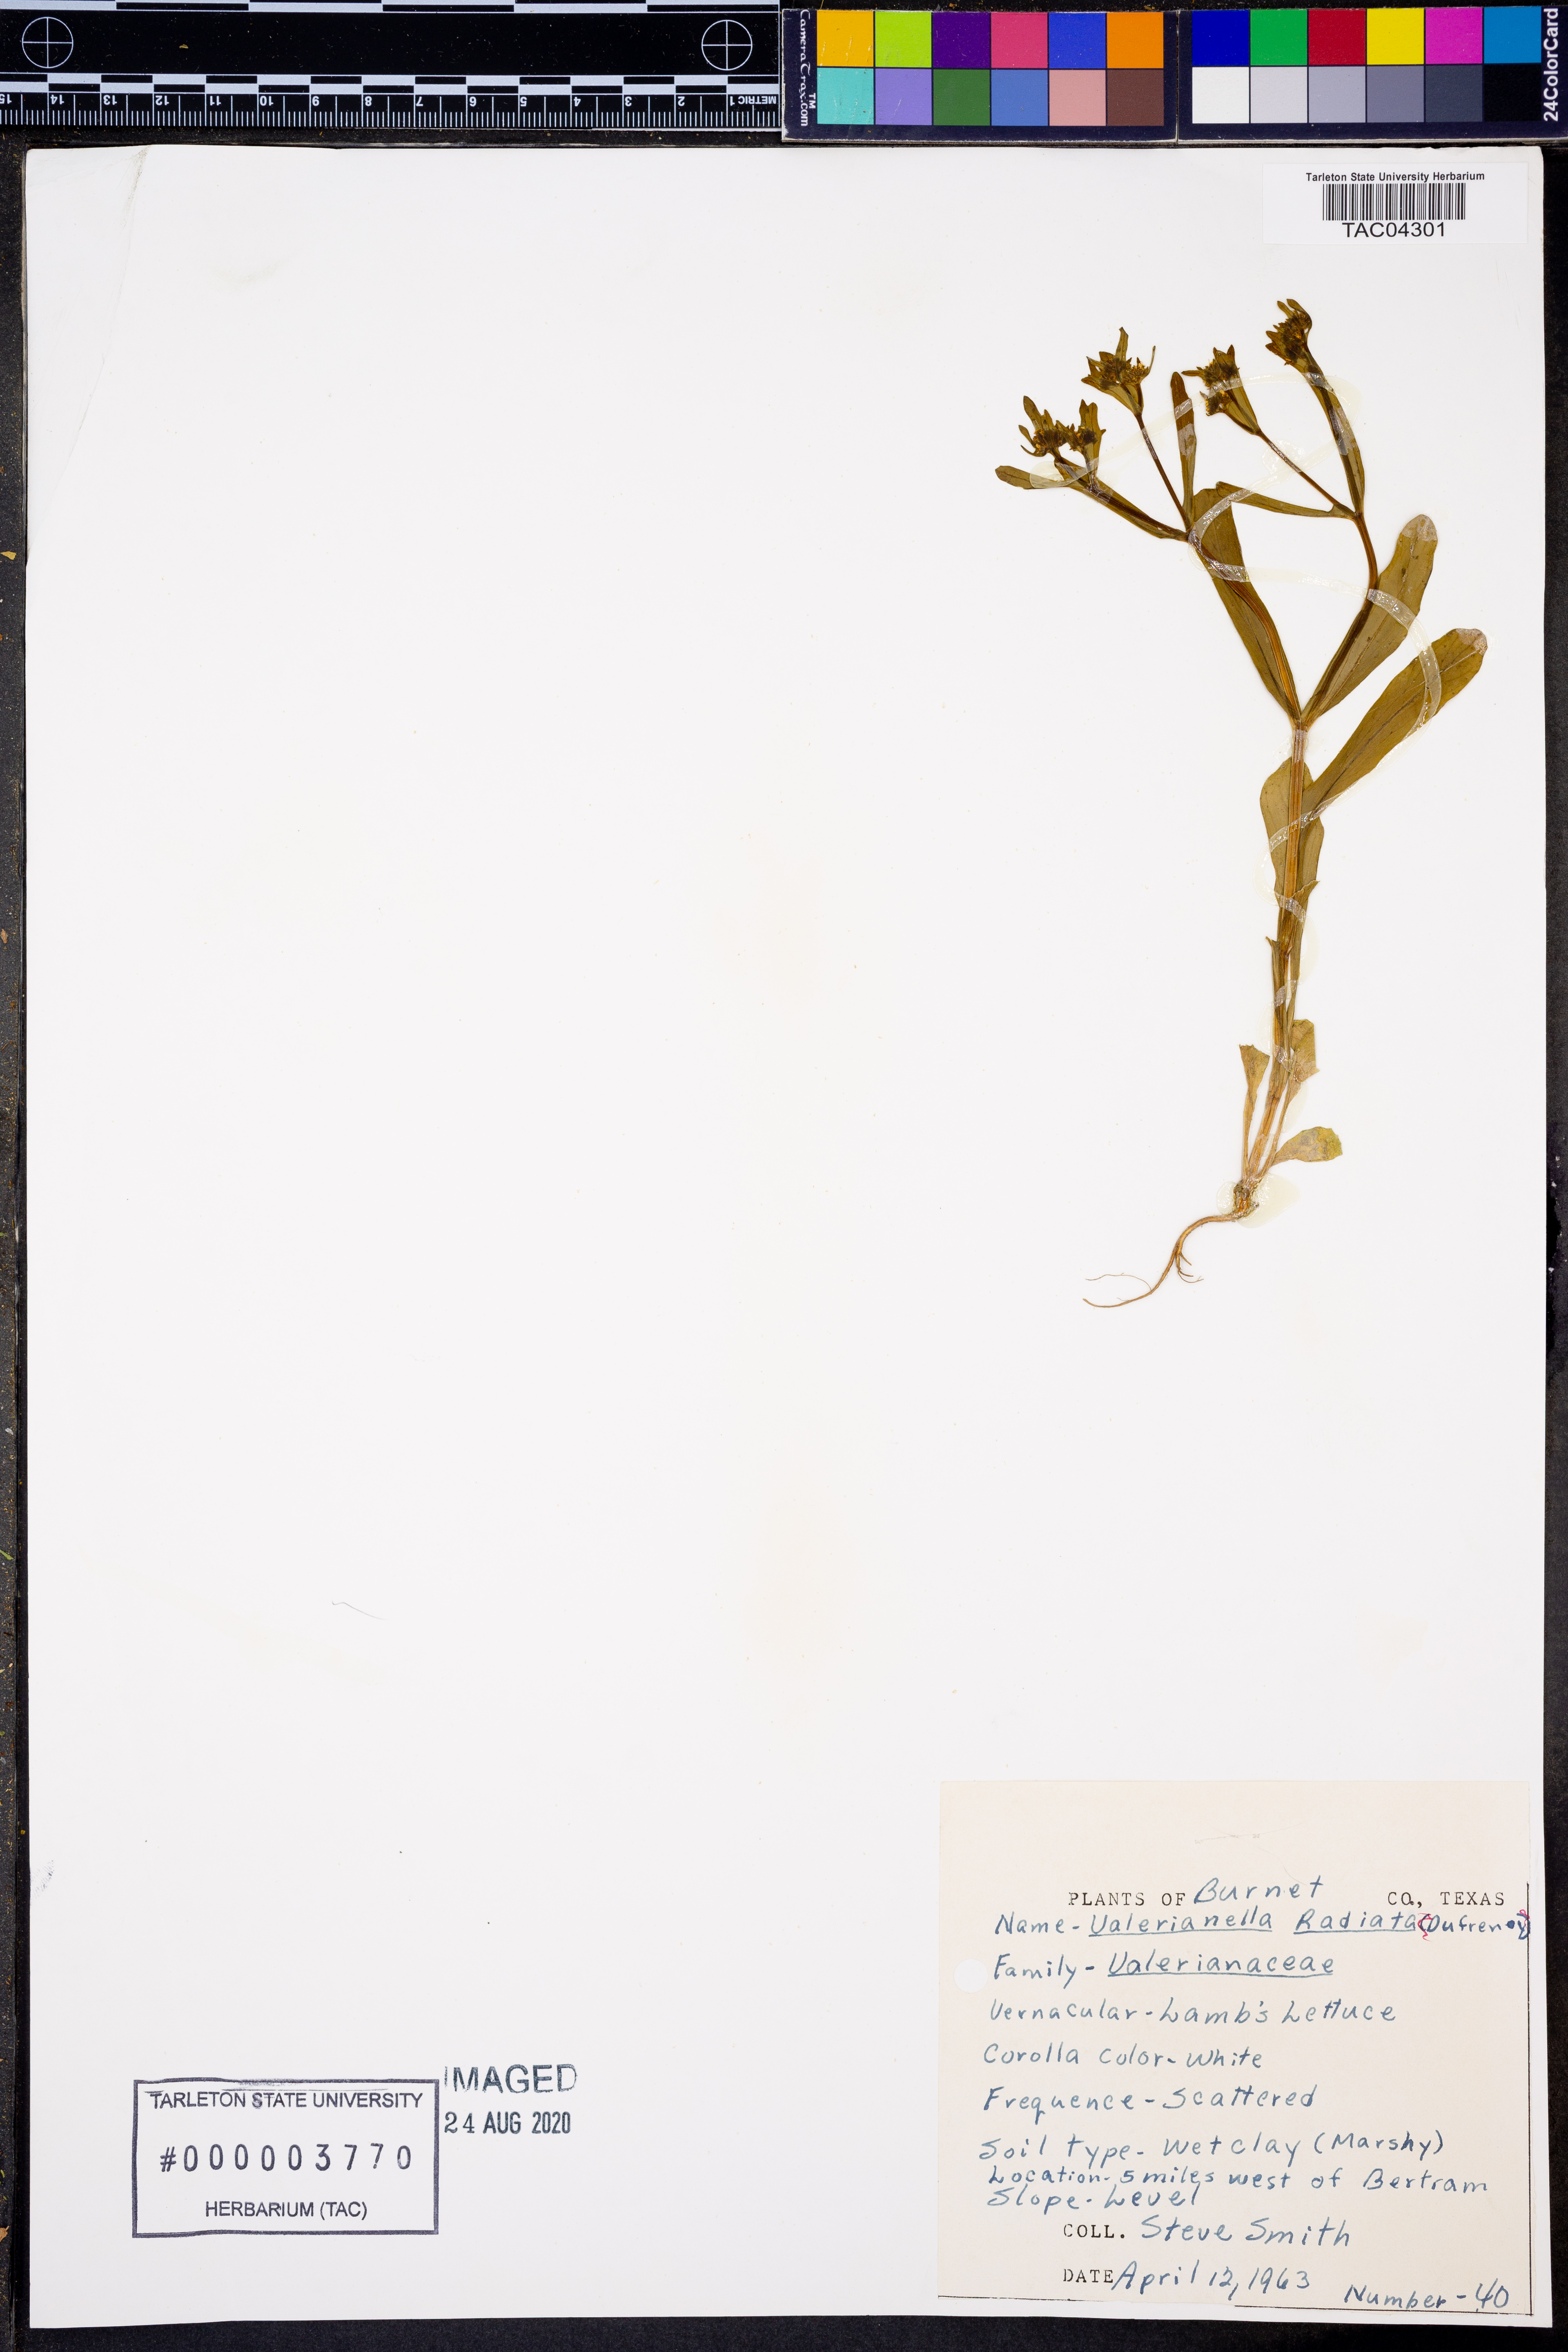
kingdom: Plantae
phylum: Tracheophyta
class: Magnoliopsida
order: Dipsacales
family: Caprifoliaceae
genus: Valerianella
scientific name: Valerianella radiata
